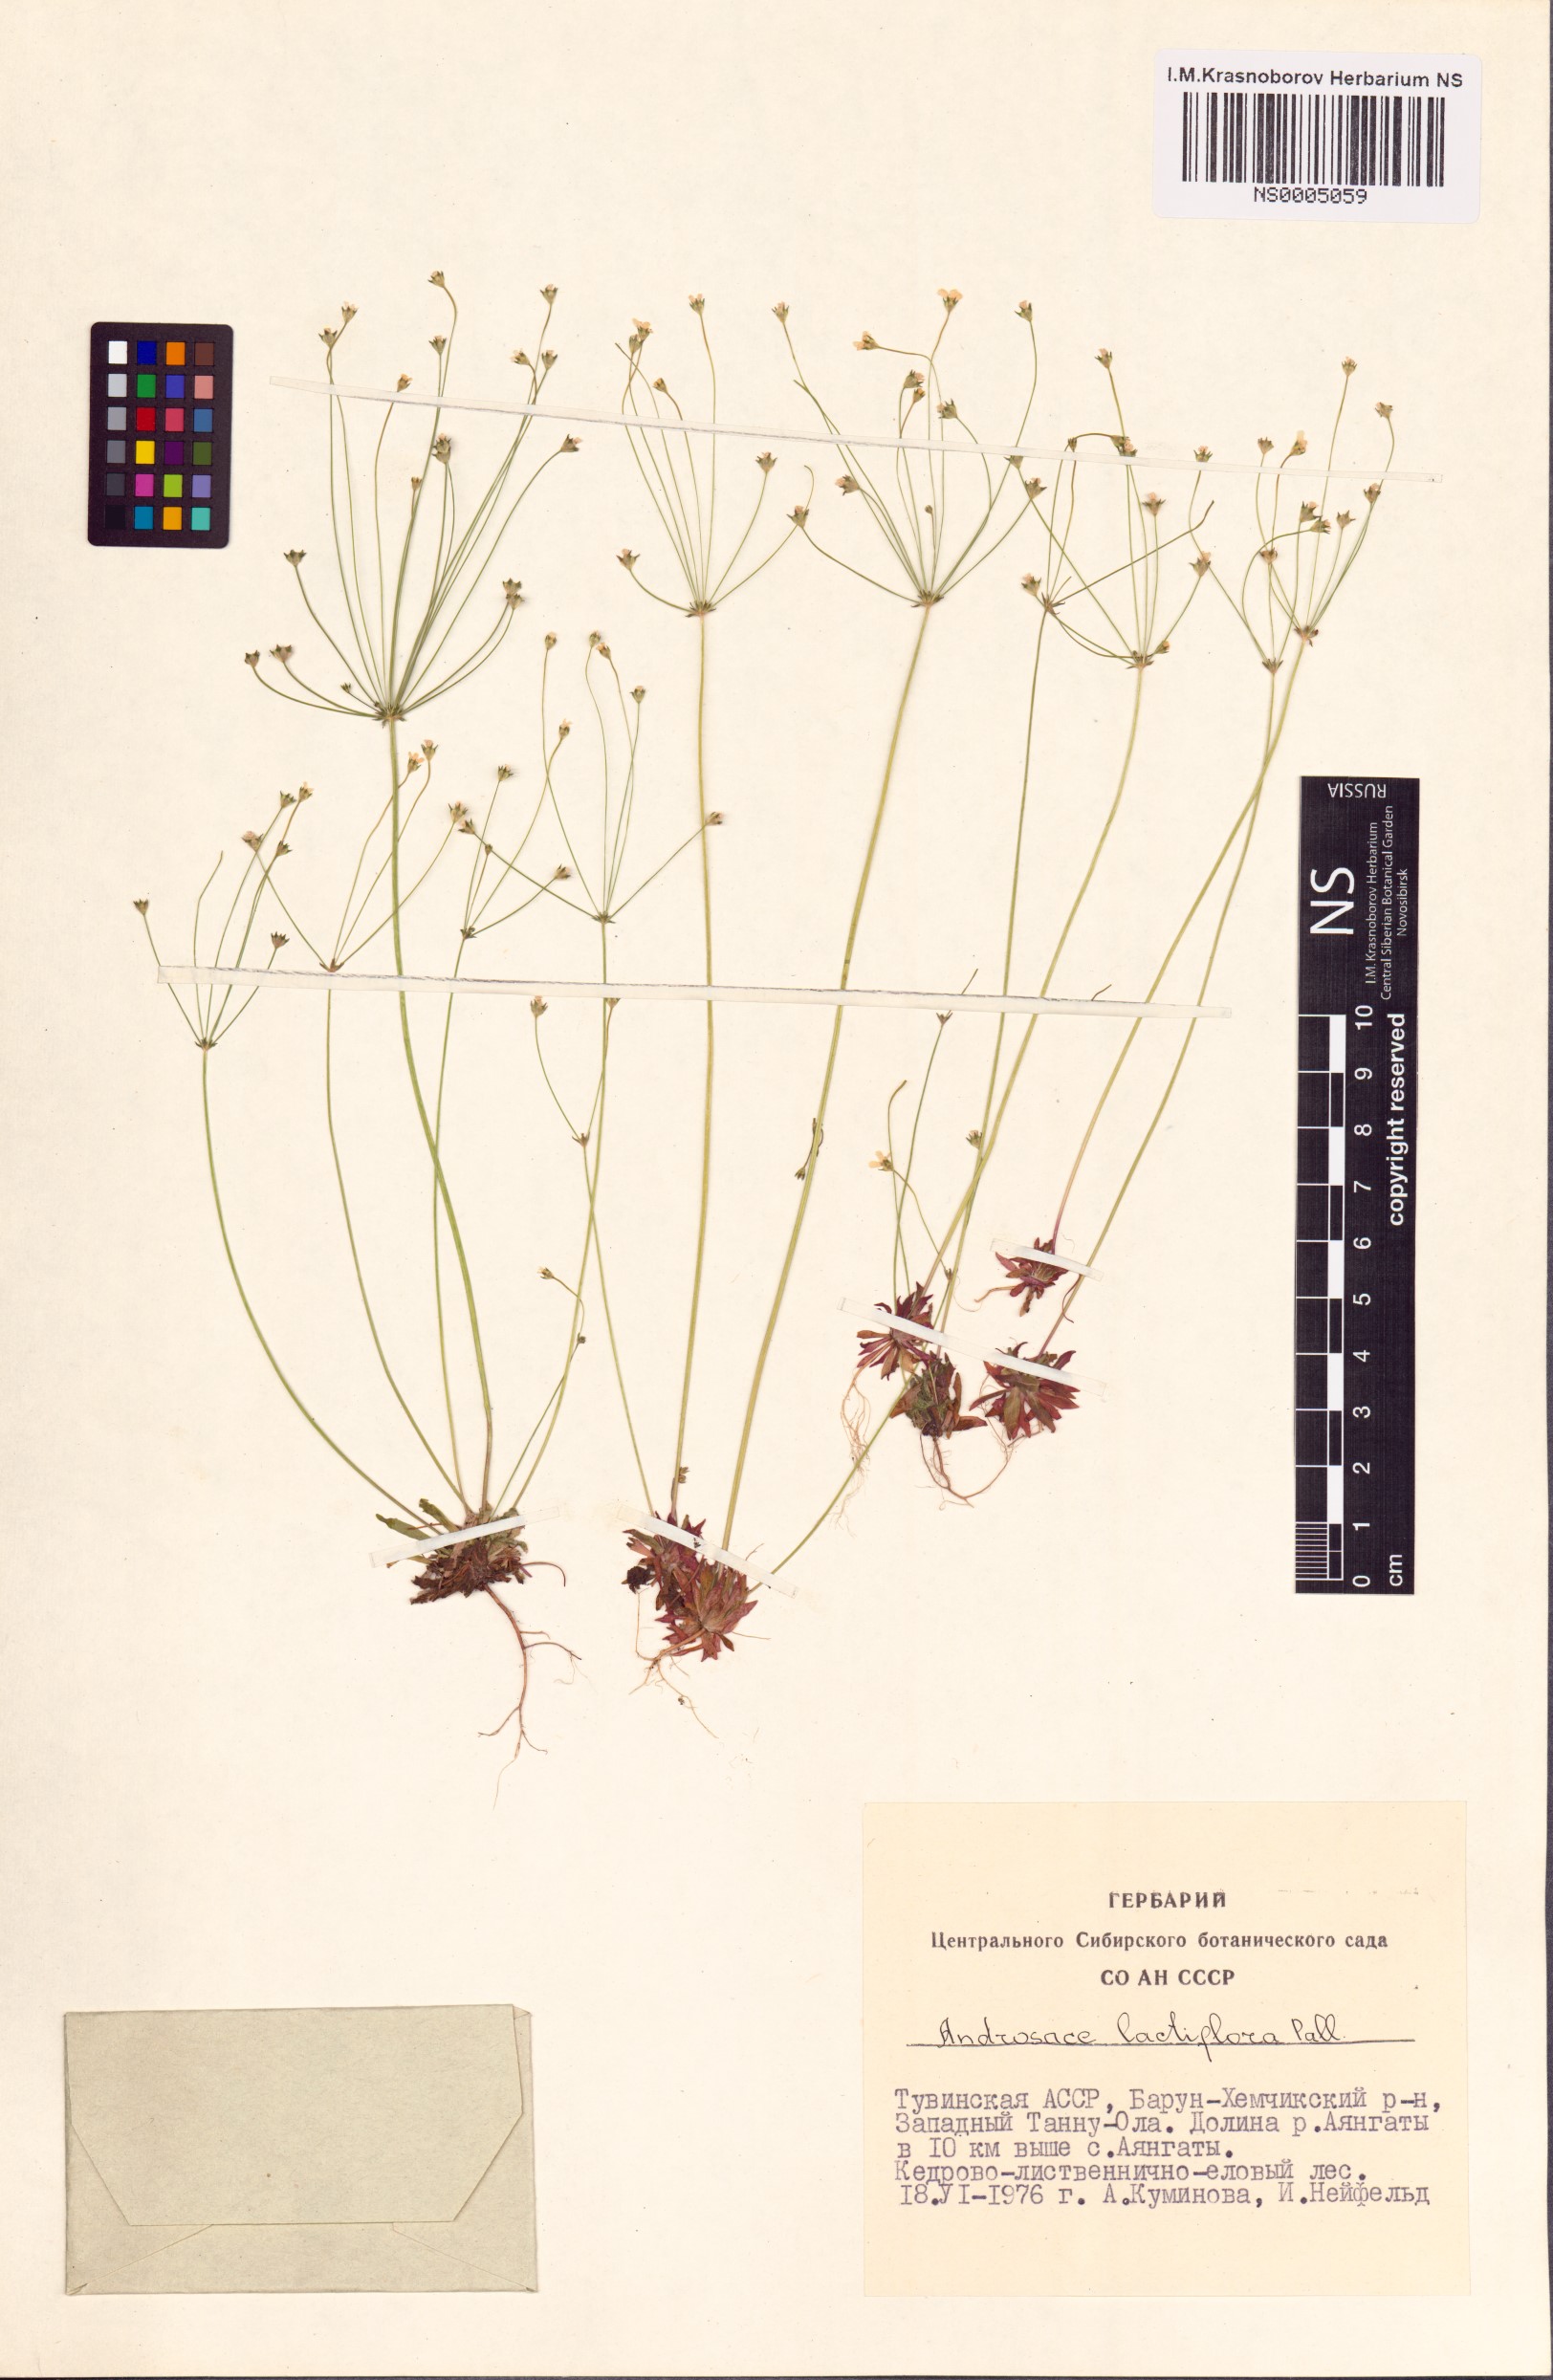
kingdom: Plantae
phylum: Tracheophyta
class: Magnoliopsida
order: Ericales
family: Primulaceae
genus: Androsace
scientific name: Androsace lactiflora
